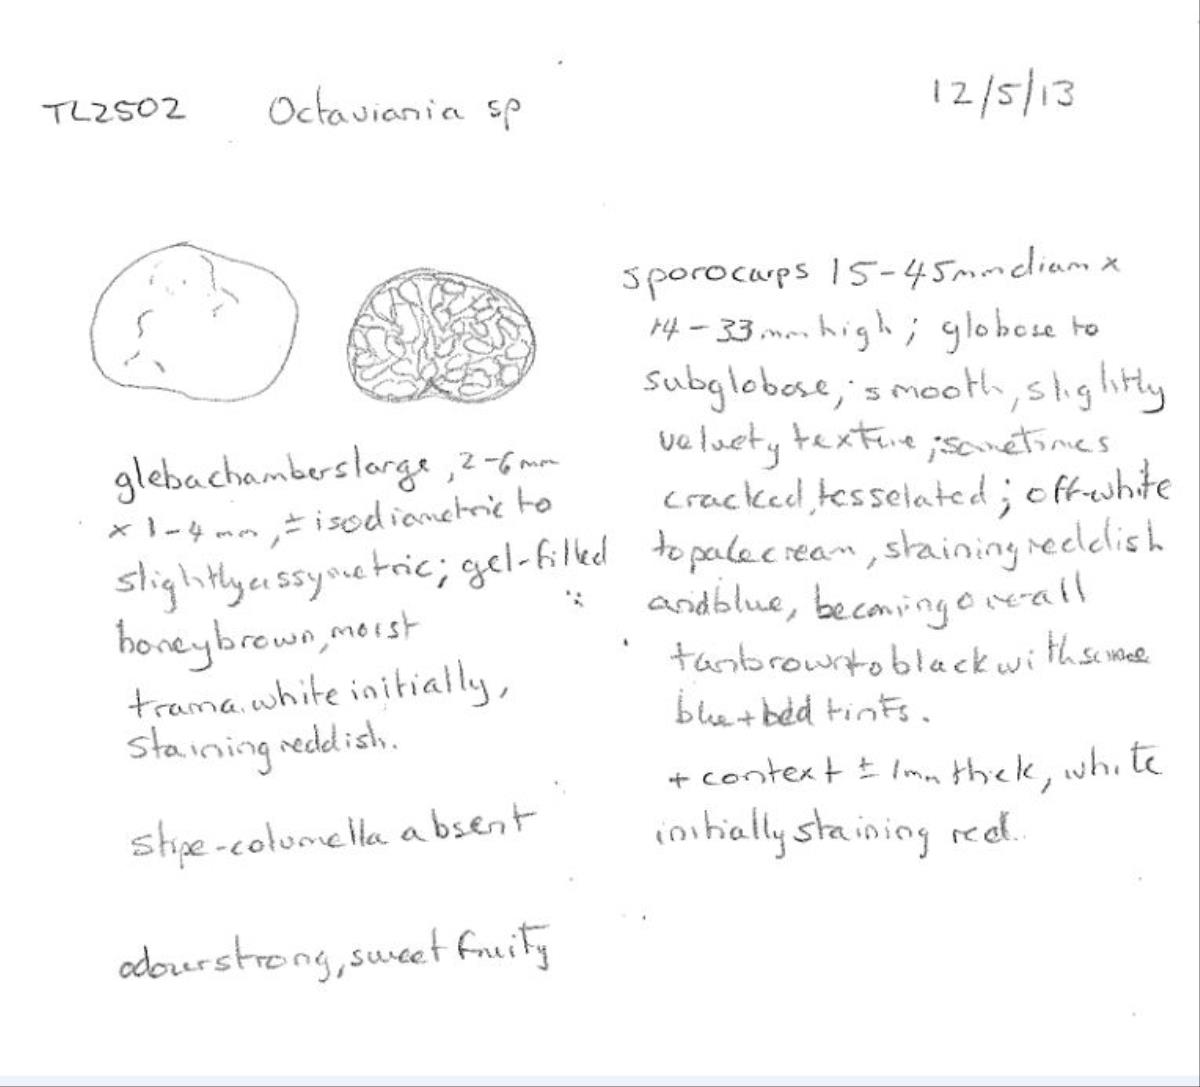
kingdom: Fungi
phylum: Basidiomycota
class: Agaricomycetes
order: Boletales
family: Boletaceae
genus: Octaviania
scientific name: Octaviania tasmanica
